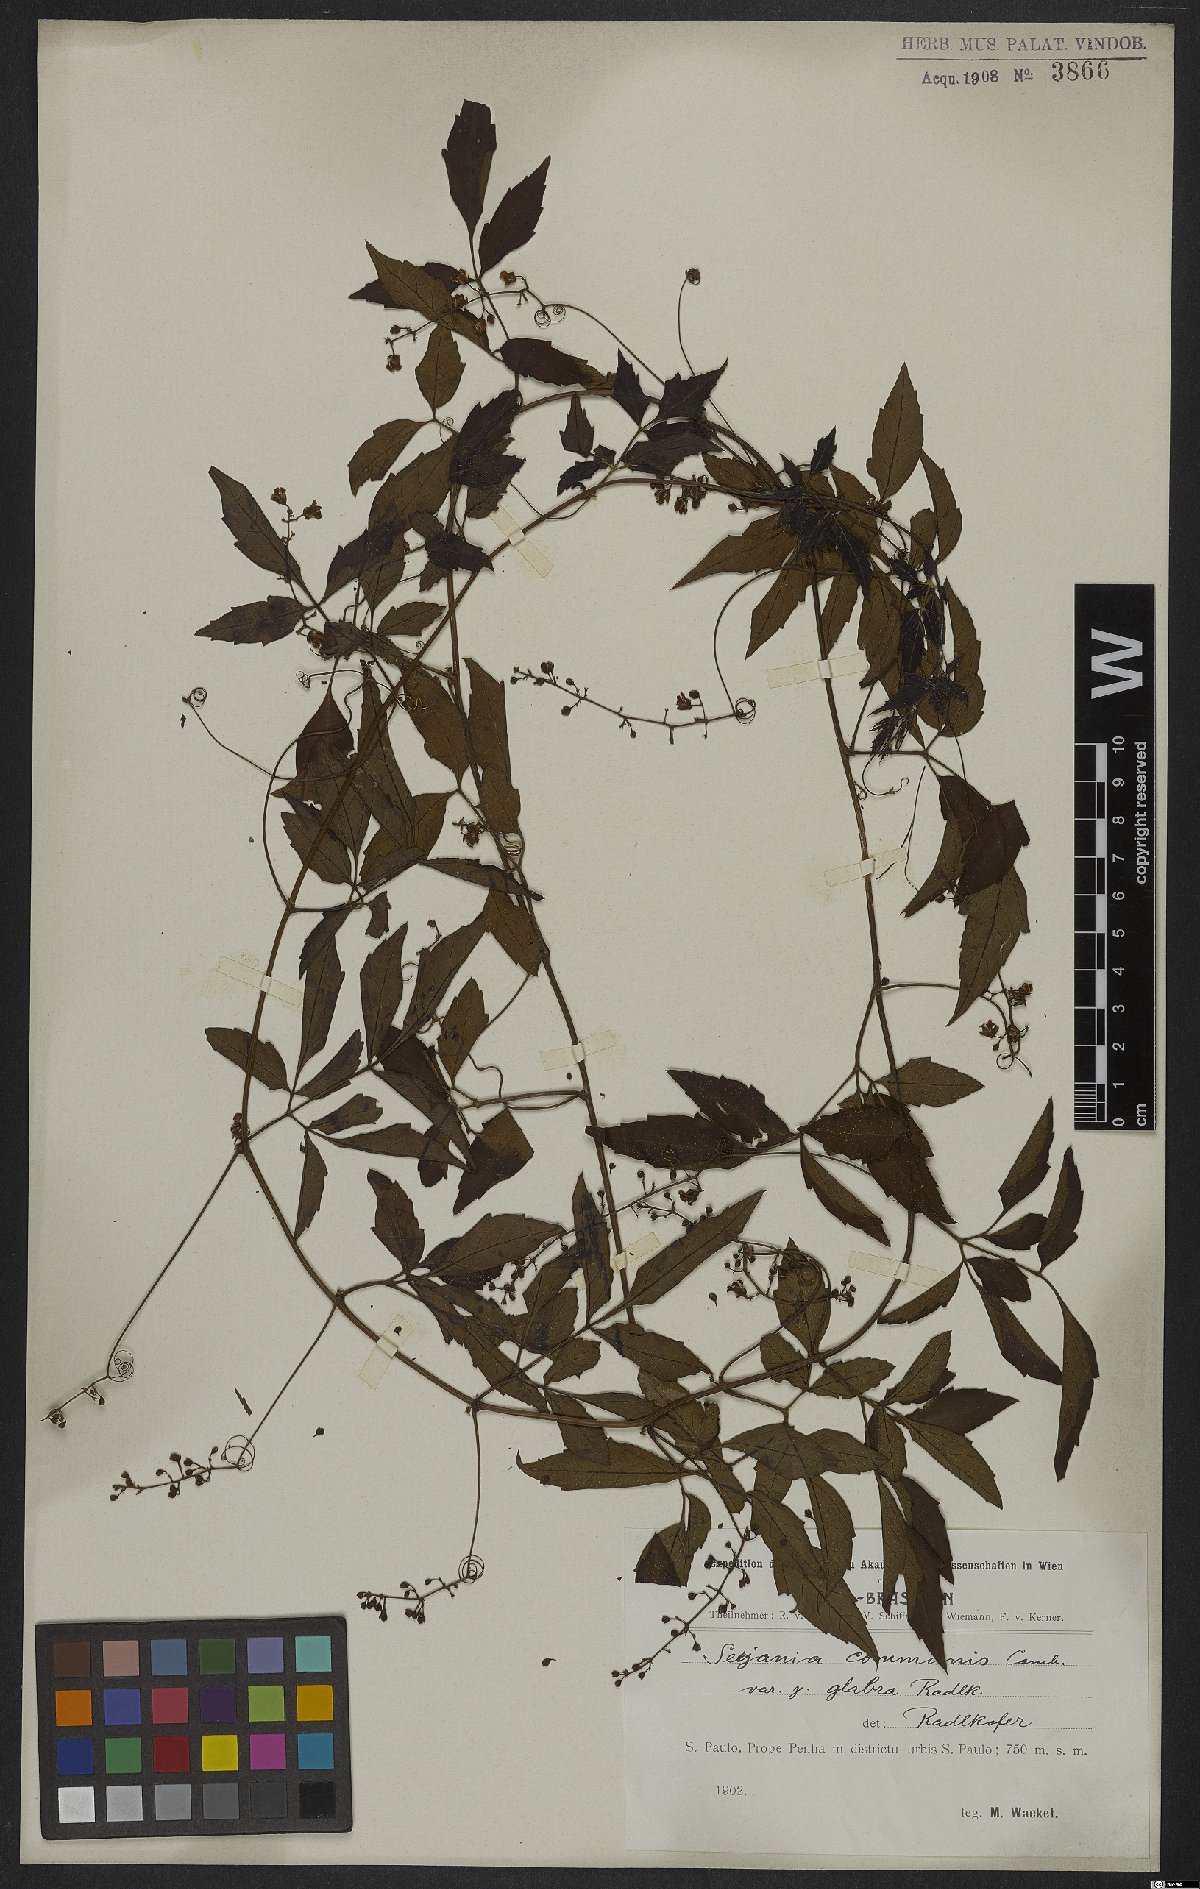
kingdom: Plantae
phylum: Tracheophyta
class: Magnoliopsida
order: Sapindales
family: Sapindaceae
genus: Serjania
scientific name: Serjania communis
